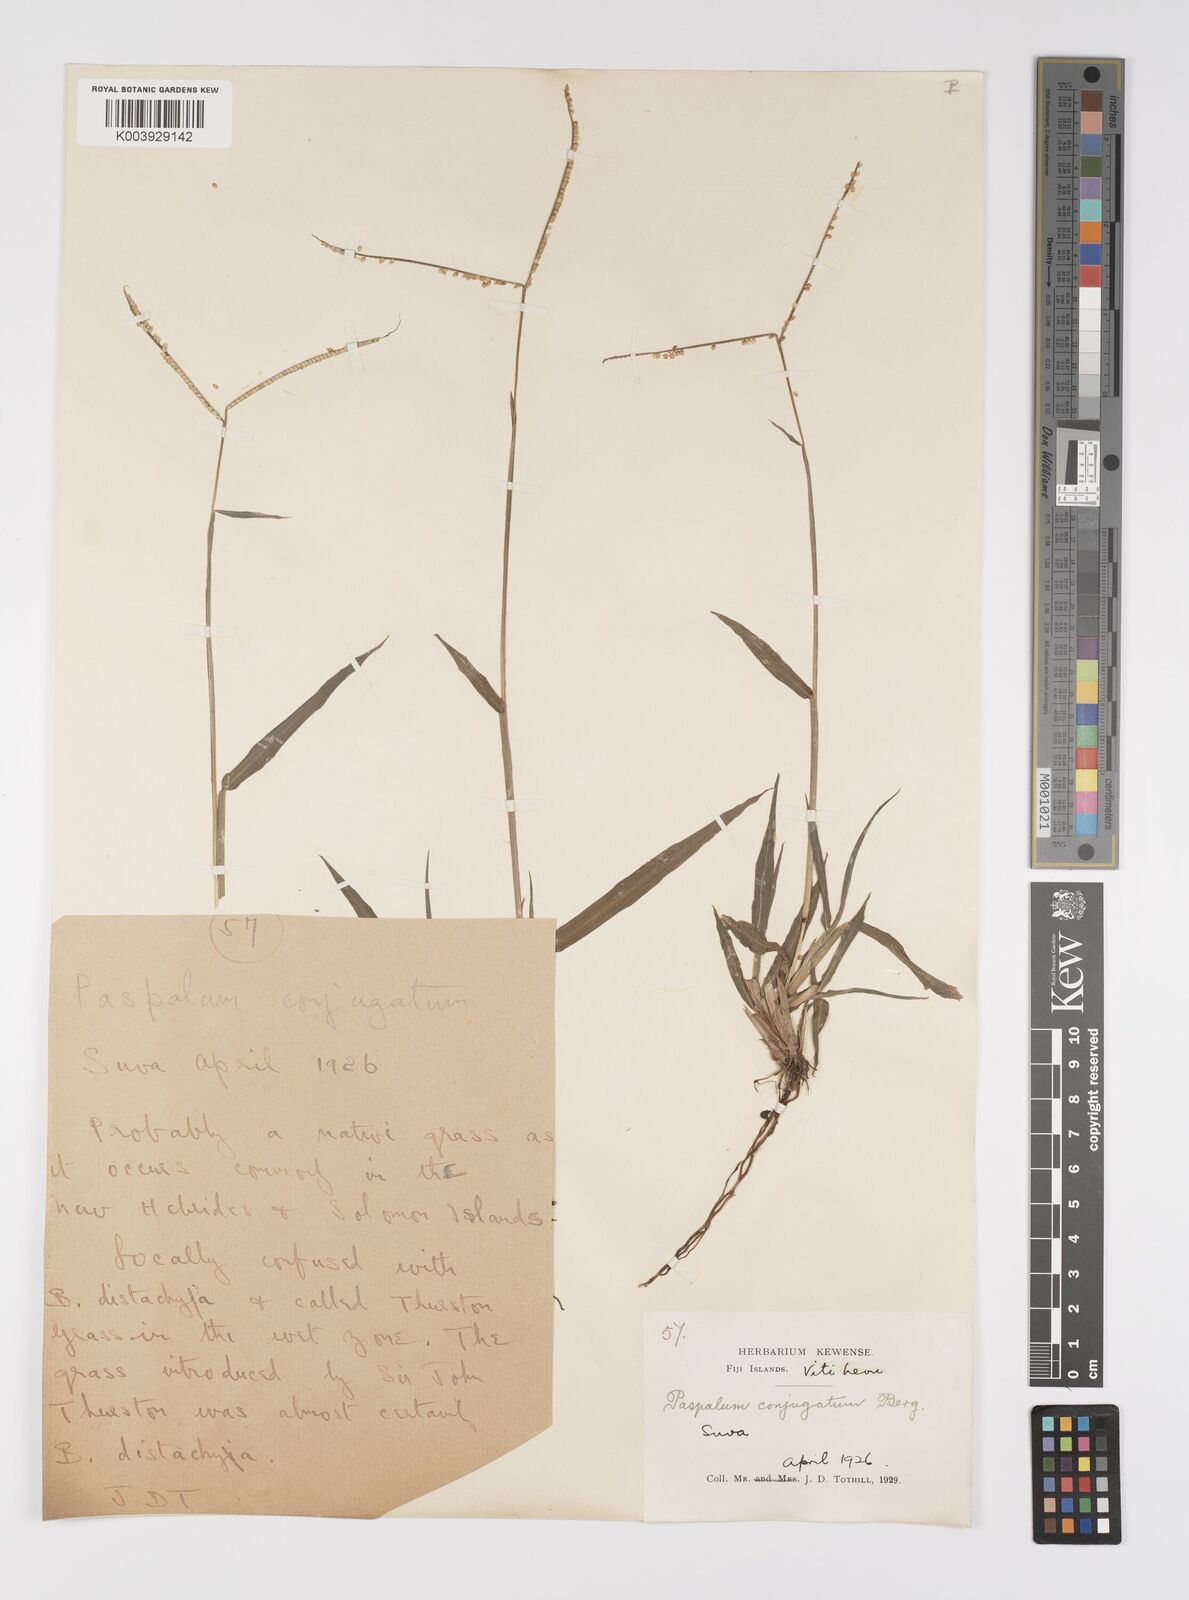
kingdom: Plantae
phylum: Tracheophyta
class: Liliopsida
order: Poales
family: Poaceae
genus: Paspalum
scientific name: Paspalum conjugatum
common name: Hilograss
